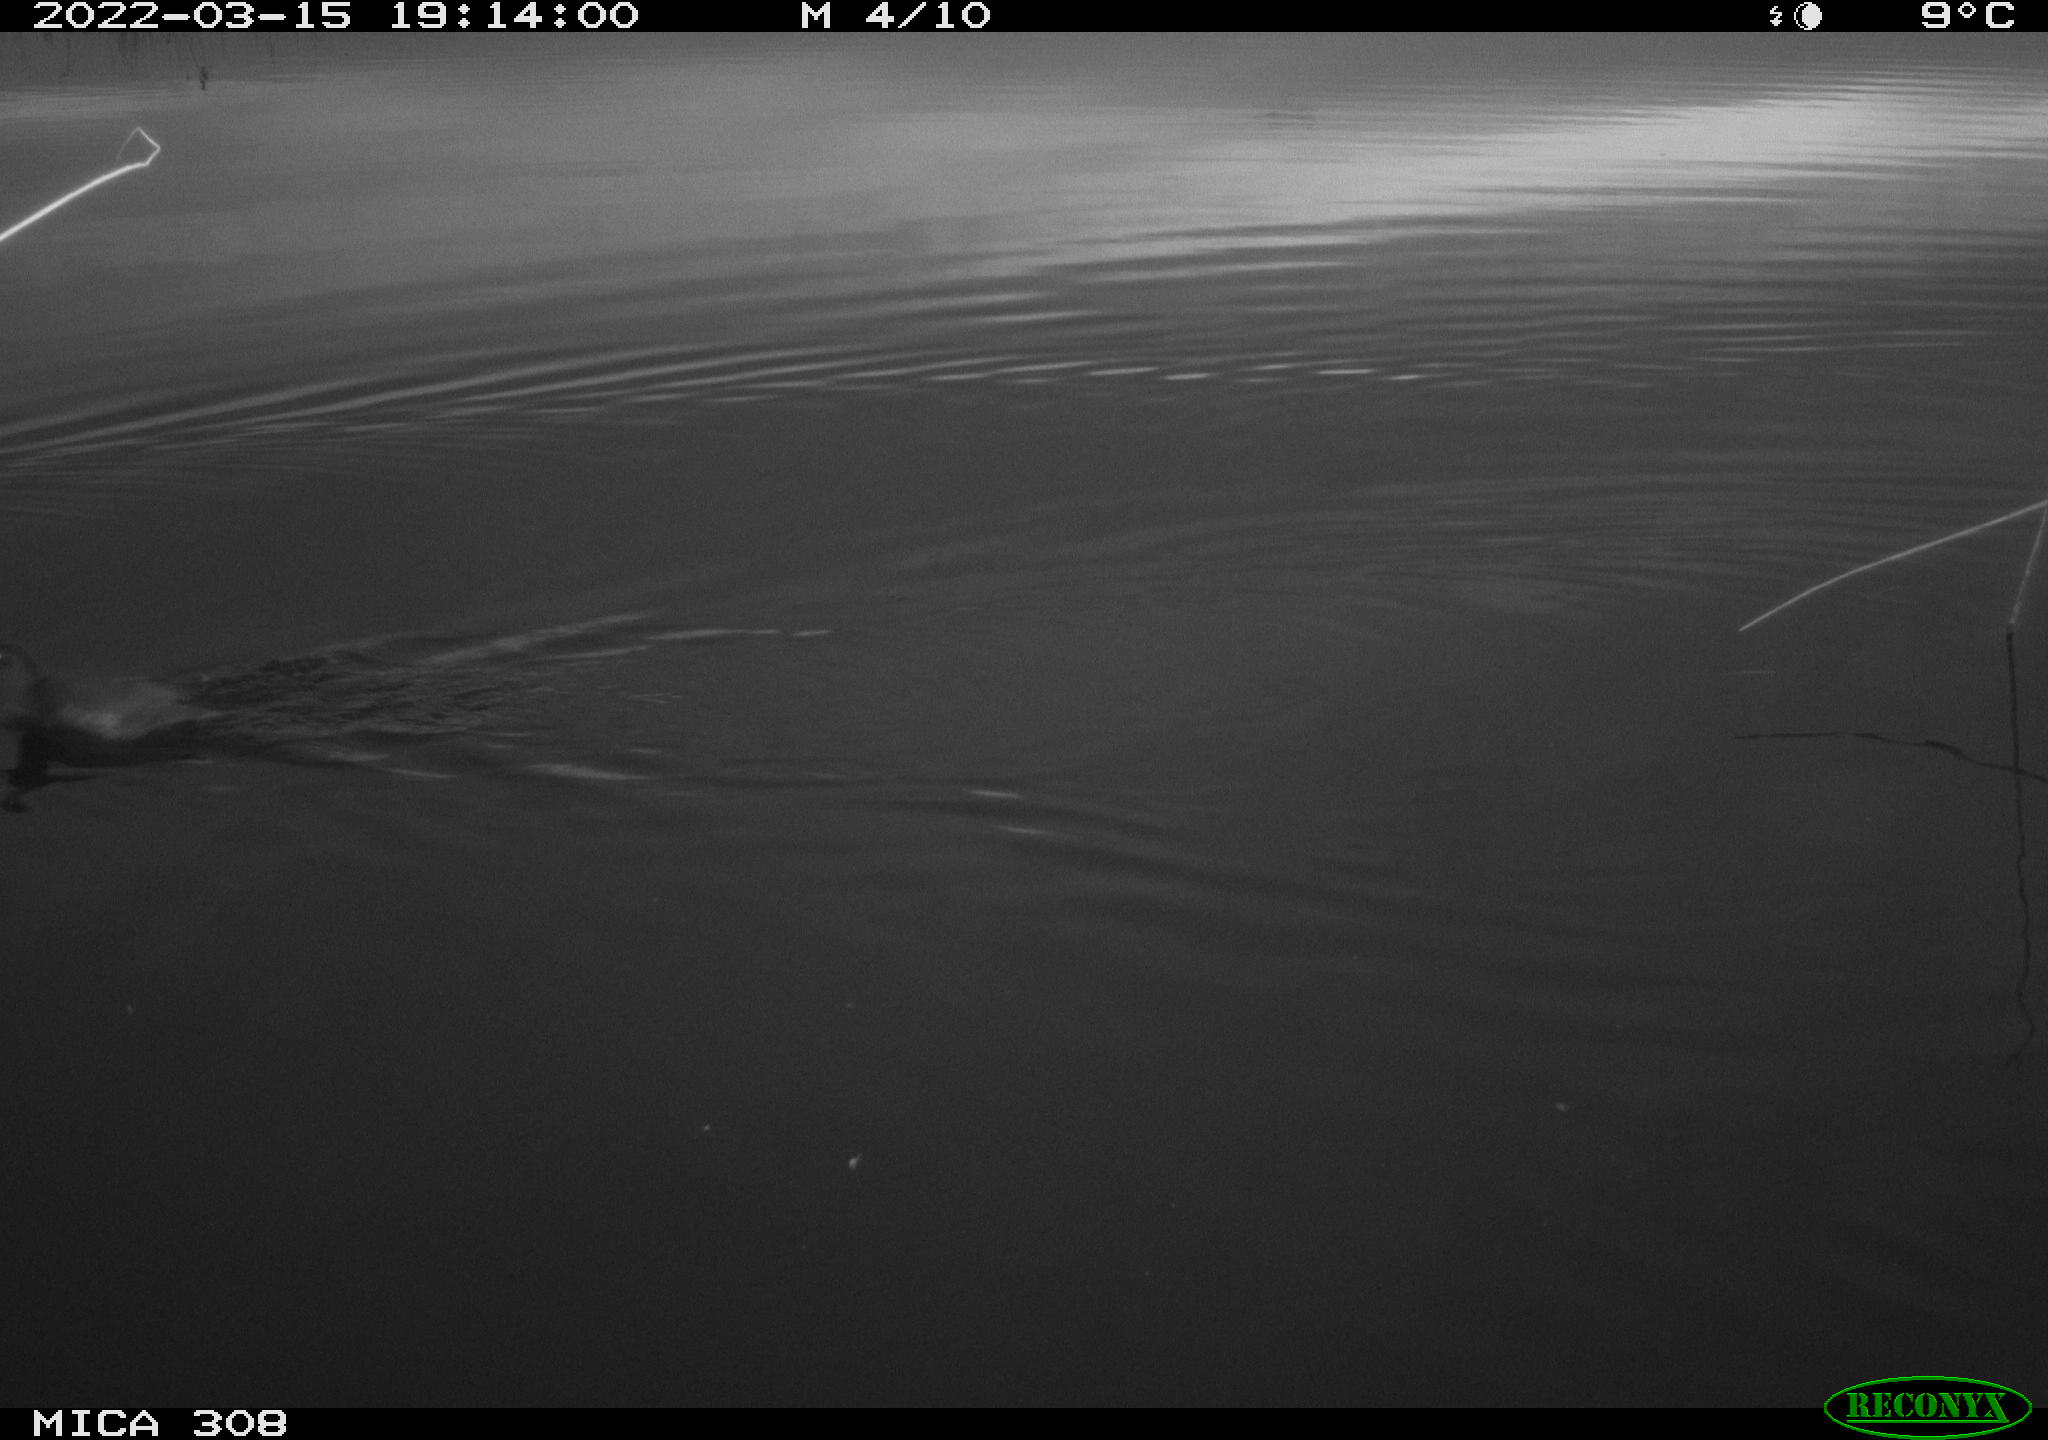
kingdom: Animalia
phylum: Chordata
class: Aves
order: Gruiformes
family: Rallidae
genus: Gallinula
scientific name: Gallinula chloropus
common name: Common moorhen
